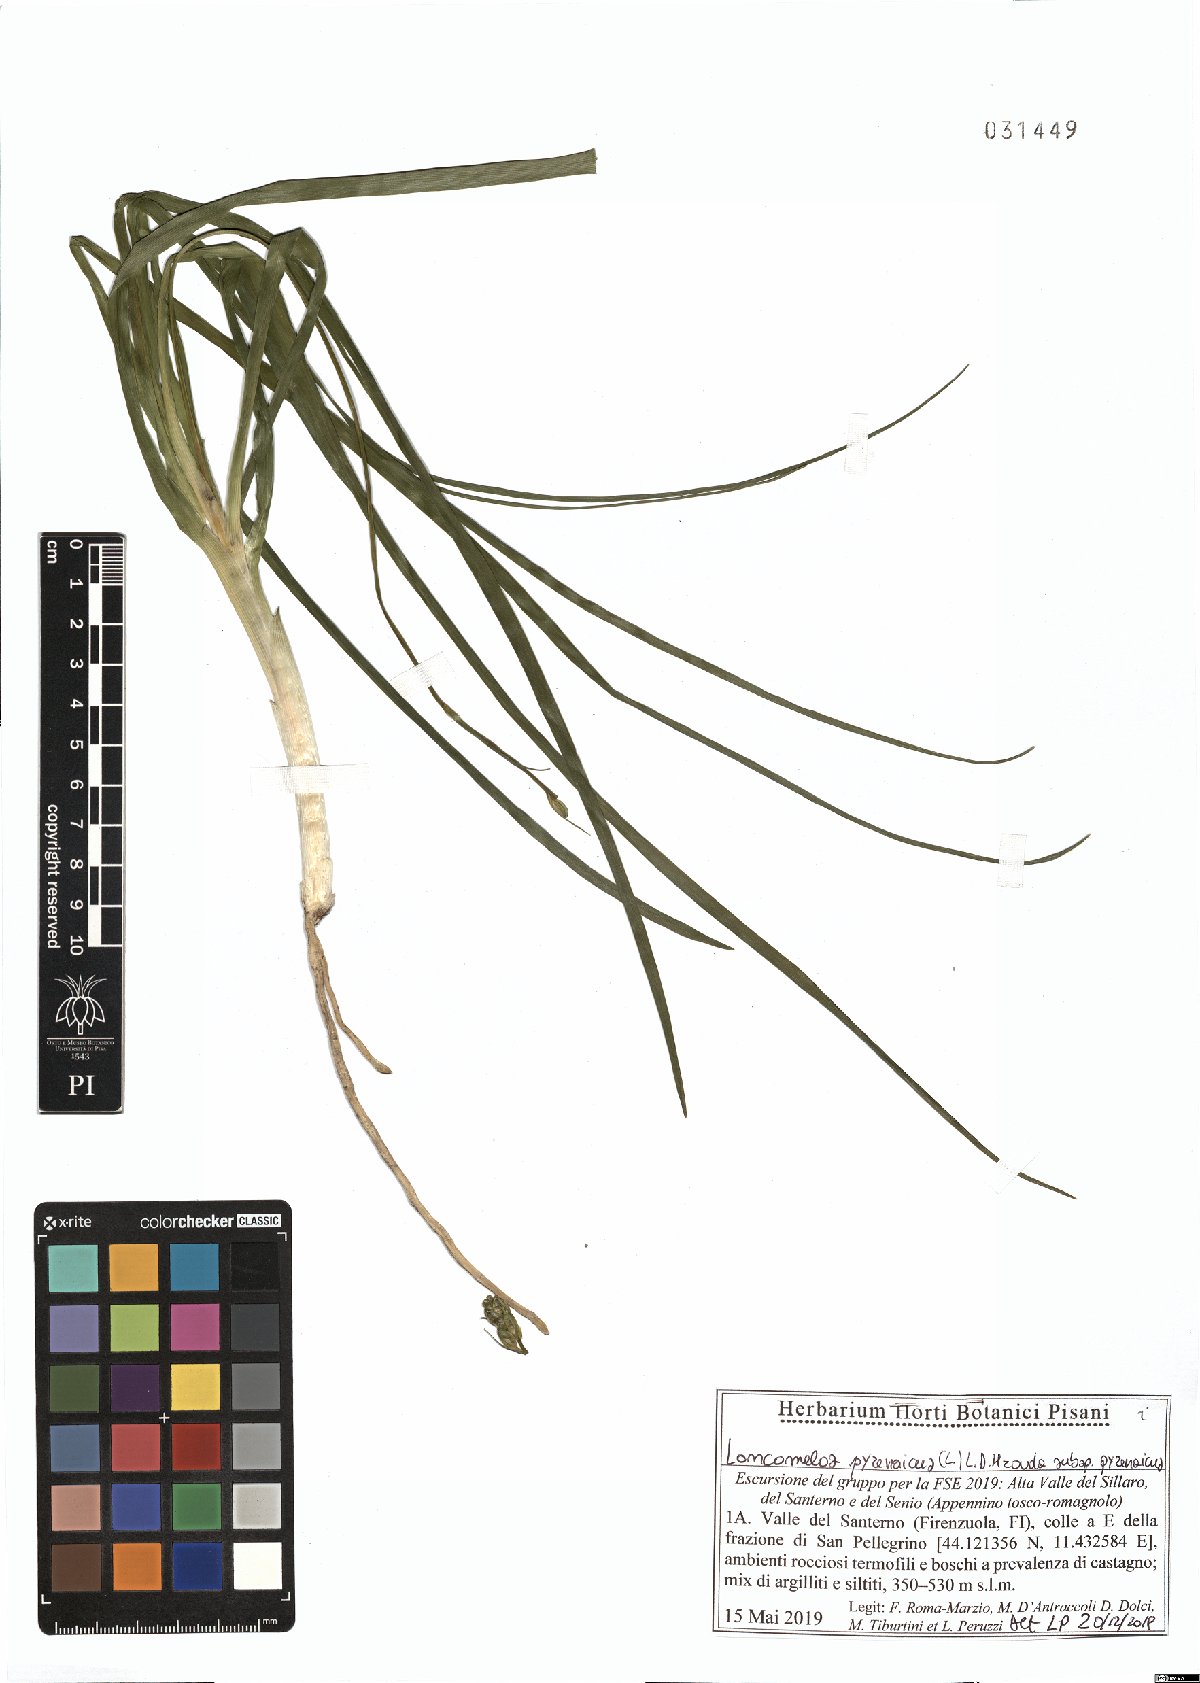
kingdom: Plantae
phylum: Tracheophyta
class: Liliopsida
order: Asparagales
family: Asparagaceae
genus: Ornithogalum
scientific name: Ornithogalum pyrenaicum
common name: Spiked star-of-bethlehem
